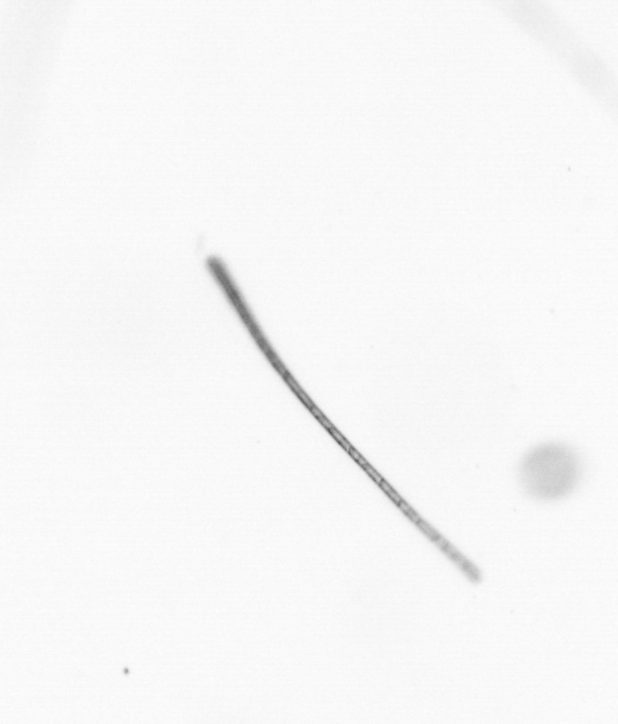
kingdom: Chromista
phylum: Ochrophyta
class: Bacillariophyceae
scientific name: Bacillariophyceae
